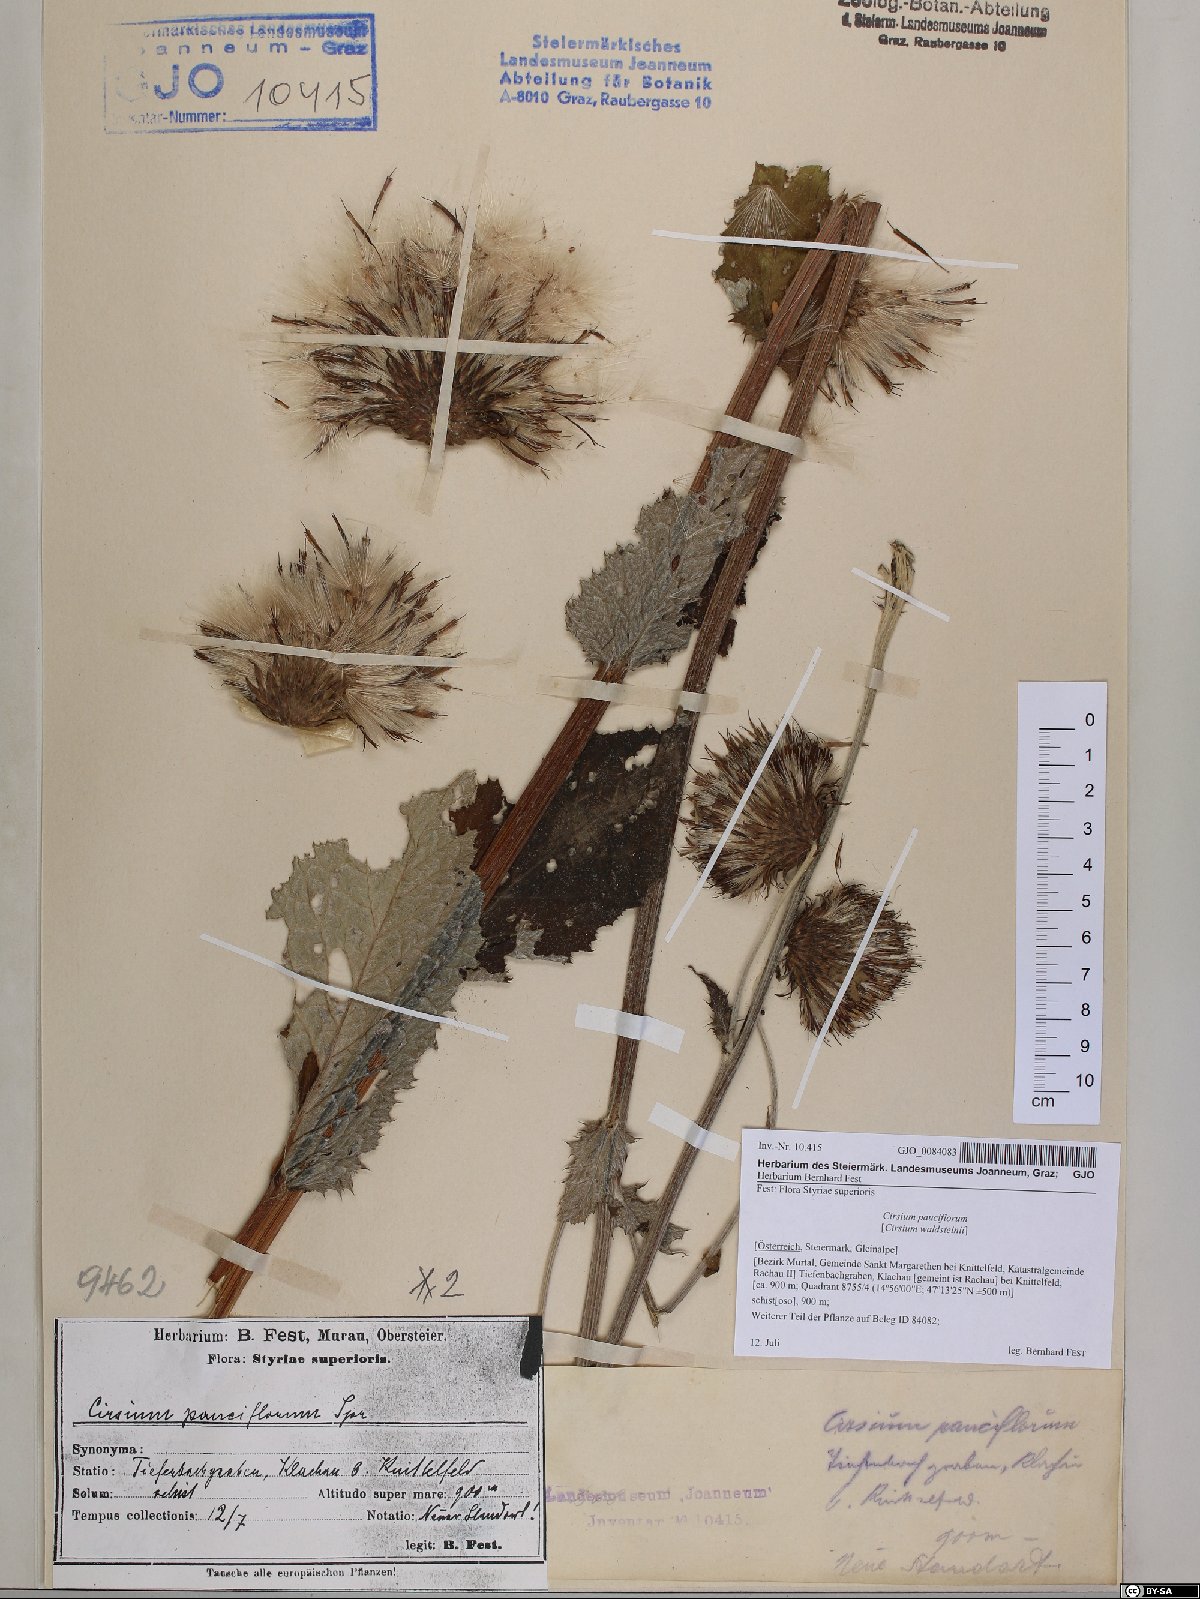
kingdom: Plantae
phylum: Tracheophyta
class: Magnoliopsida
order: Asterales
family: Asteraceae
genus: Cirsium
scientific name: Cirsium greimleri
